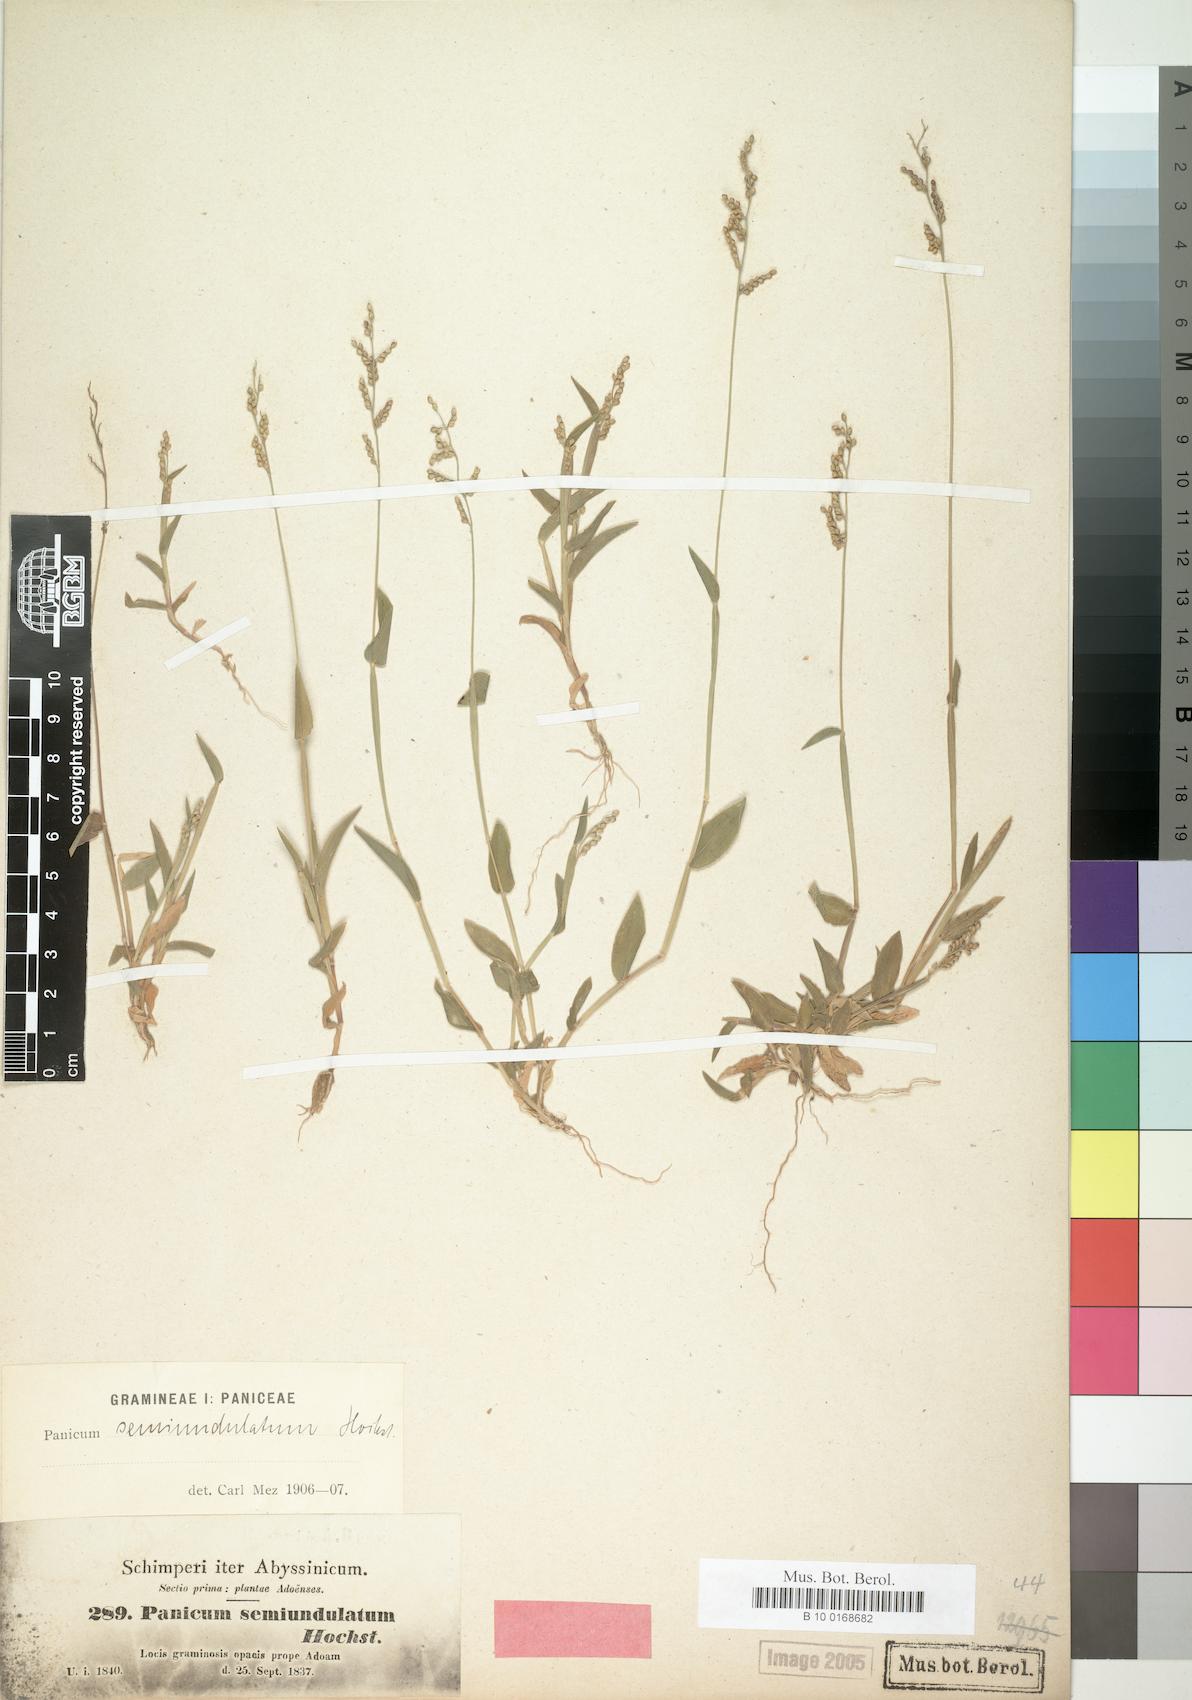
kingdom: Plantae
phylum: Tracheophyta
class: Liliopsida
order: Poales
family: Poaceae
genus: Urochloa
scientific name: Urochloa semiundulata
